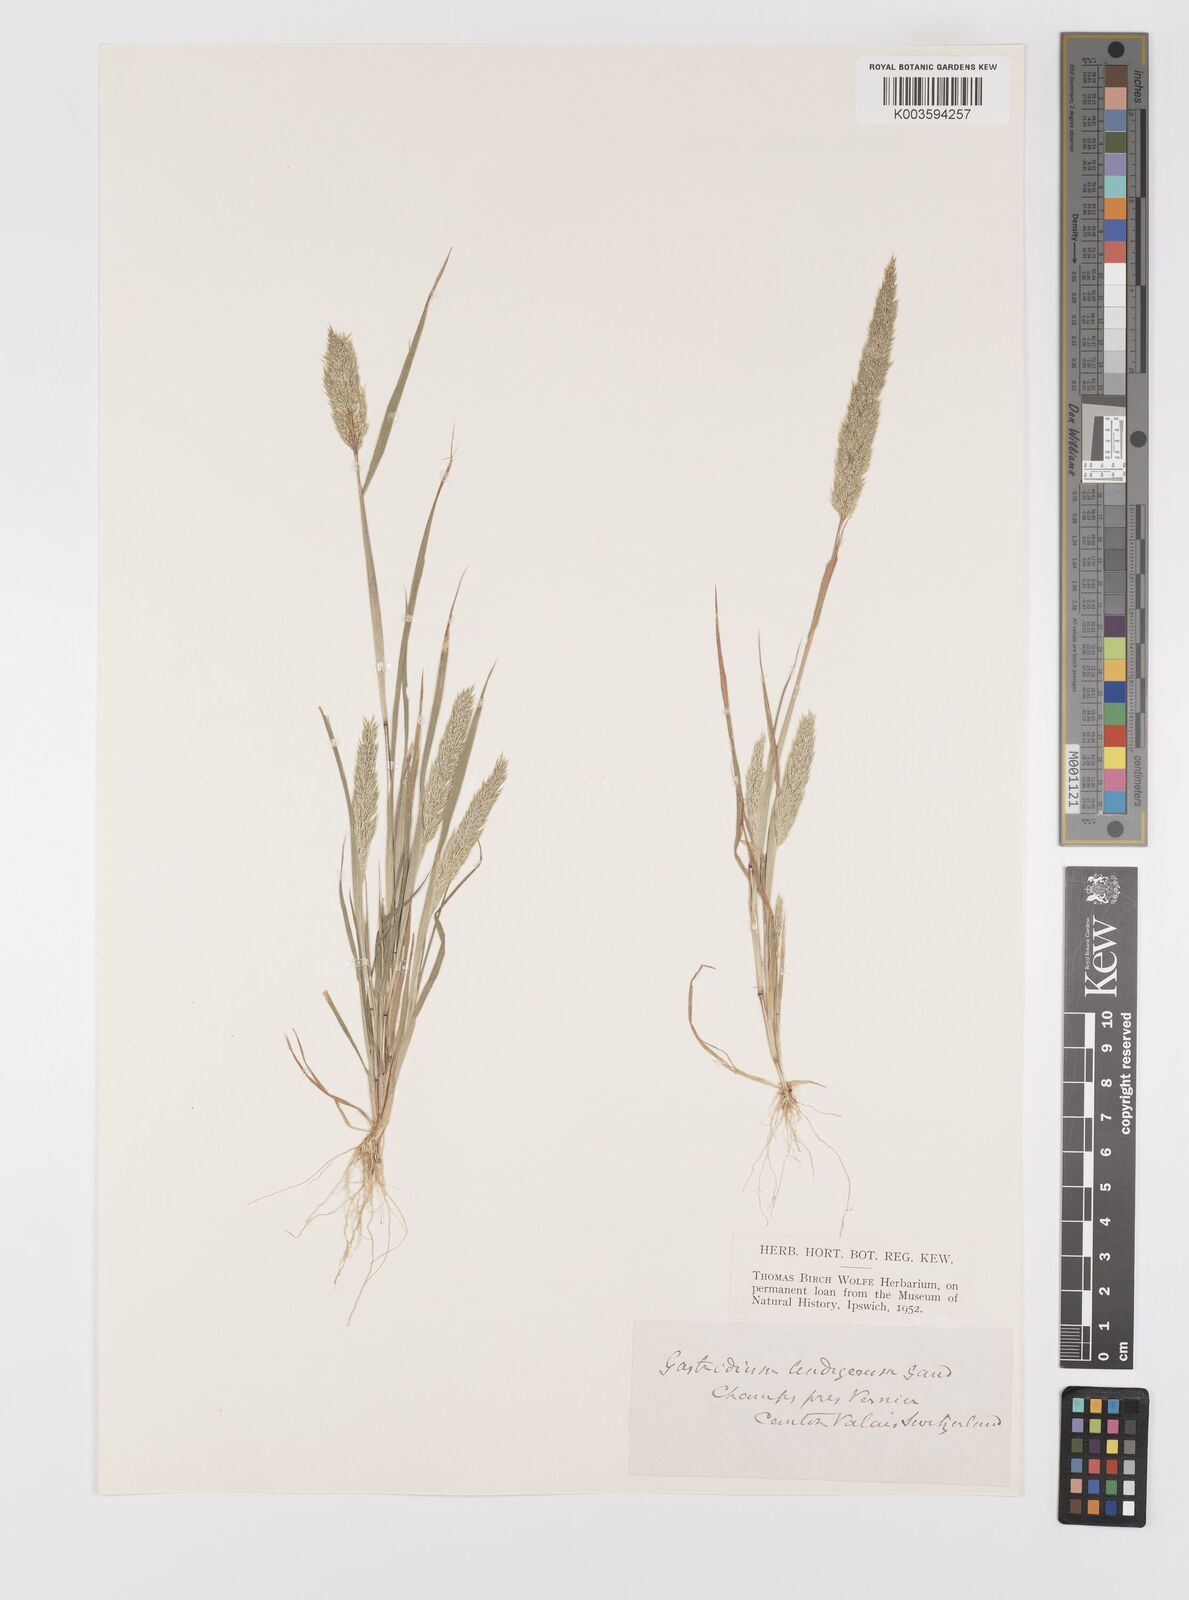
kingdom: Plantae
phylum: Tracheophyta
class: Liliopsida
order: Poales
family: Poaceae
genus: Gastridium
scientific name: Gastridium ventricosum
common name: Nit-grass
